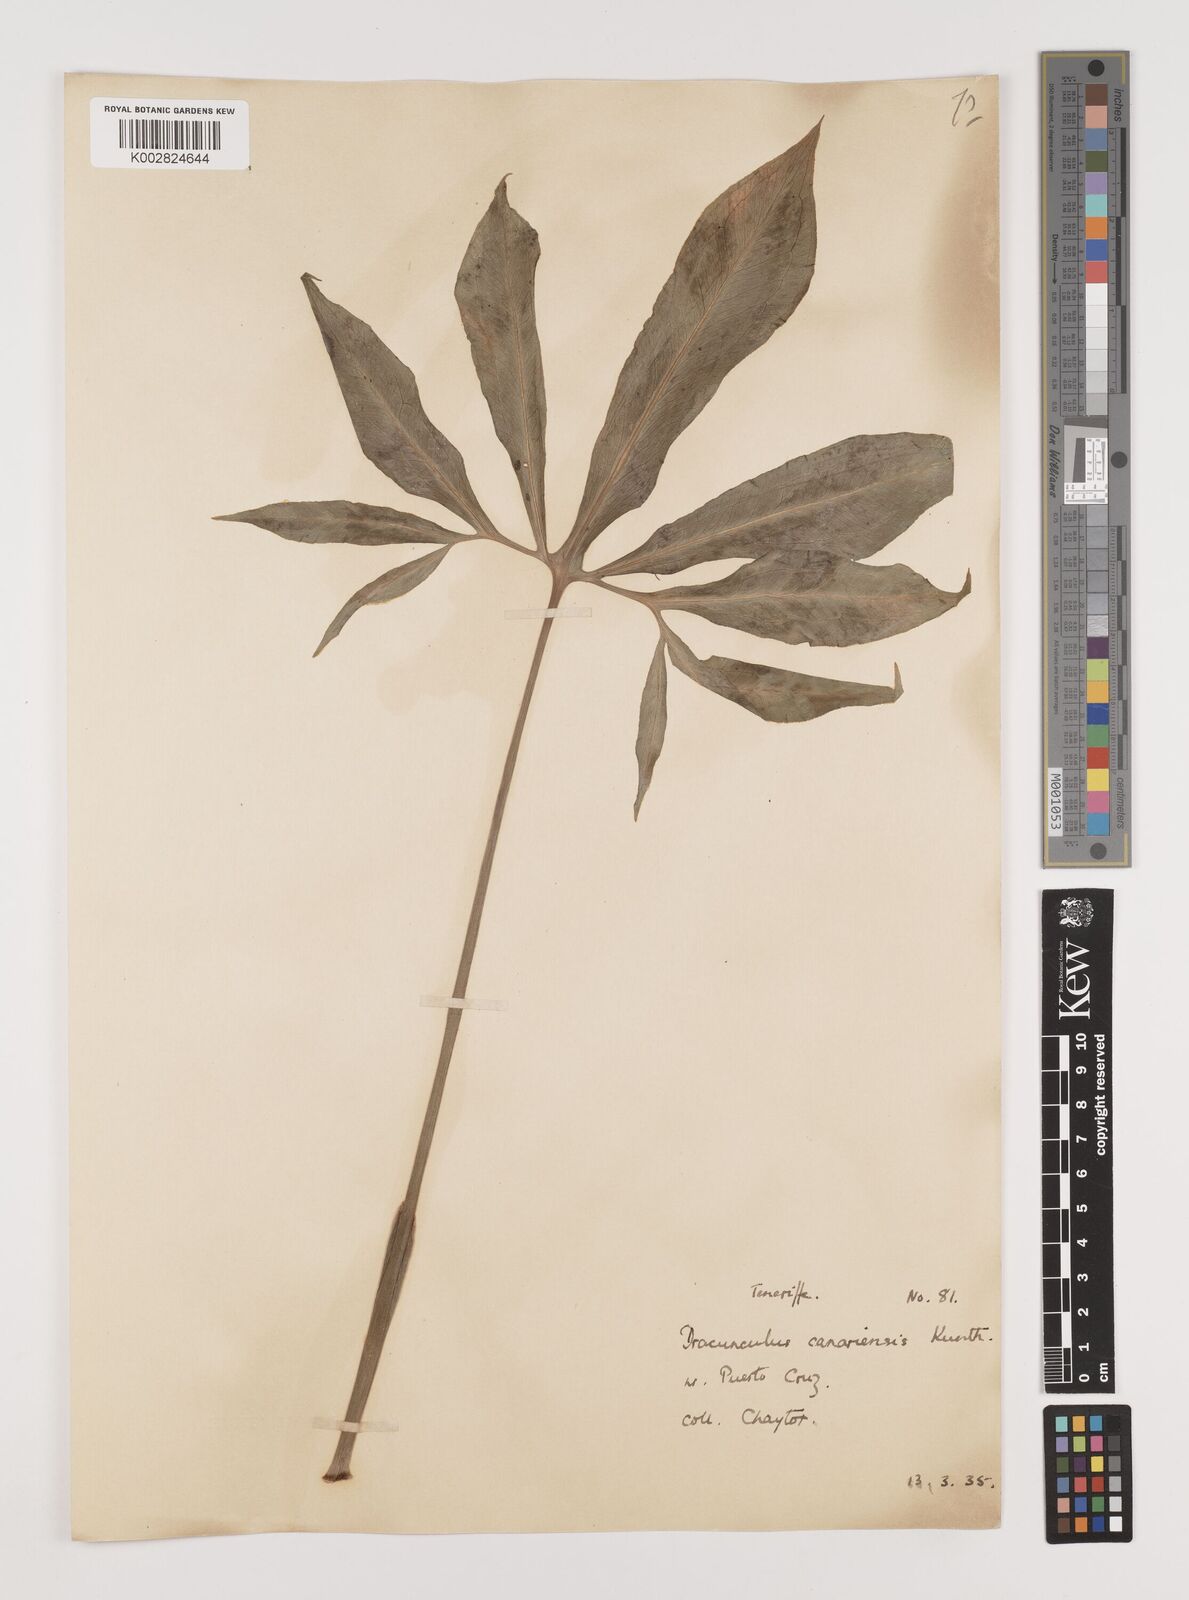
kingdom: Plantae
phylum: Tracheophyta
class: Liliopsida
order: Alismatales
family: Araceae
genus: Dracunculus
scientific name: Dracunculus canariensis
